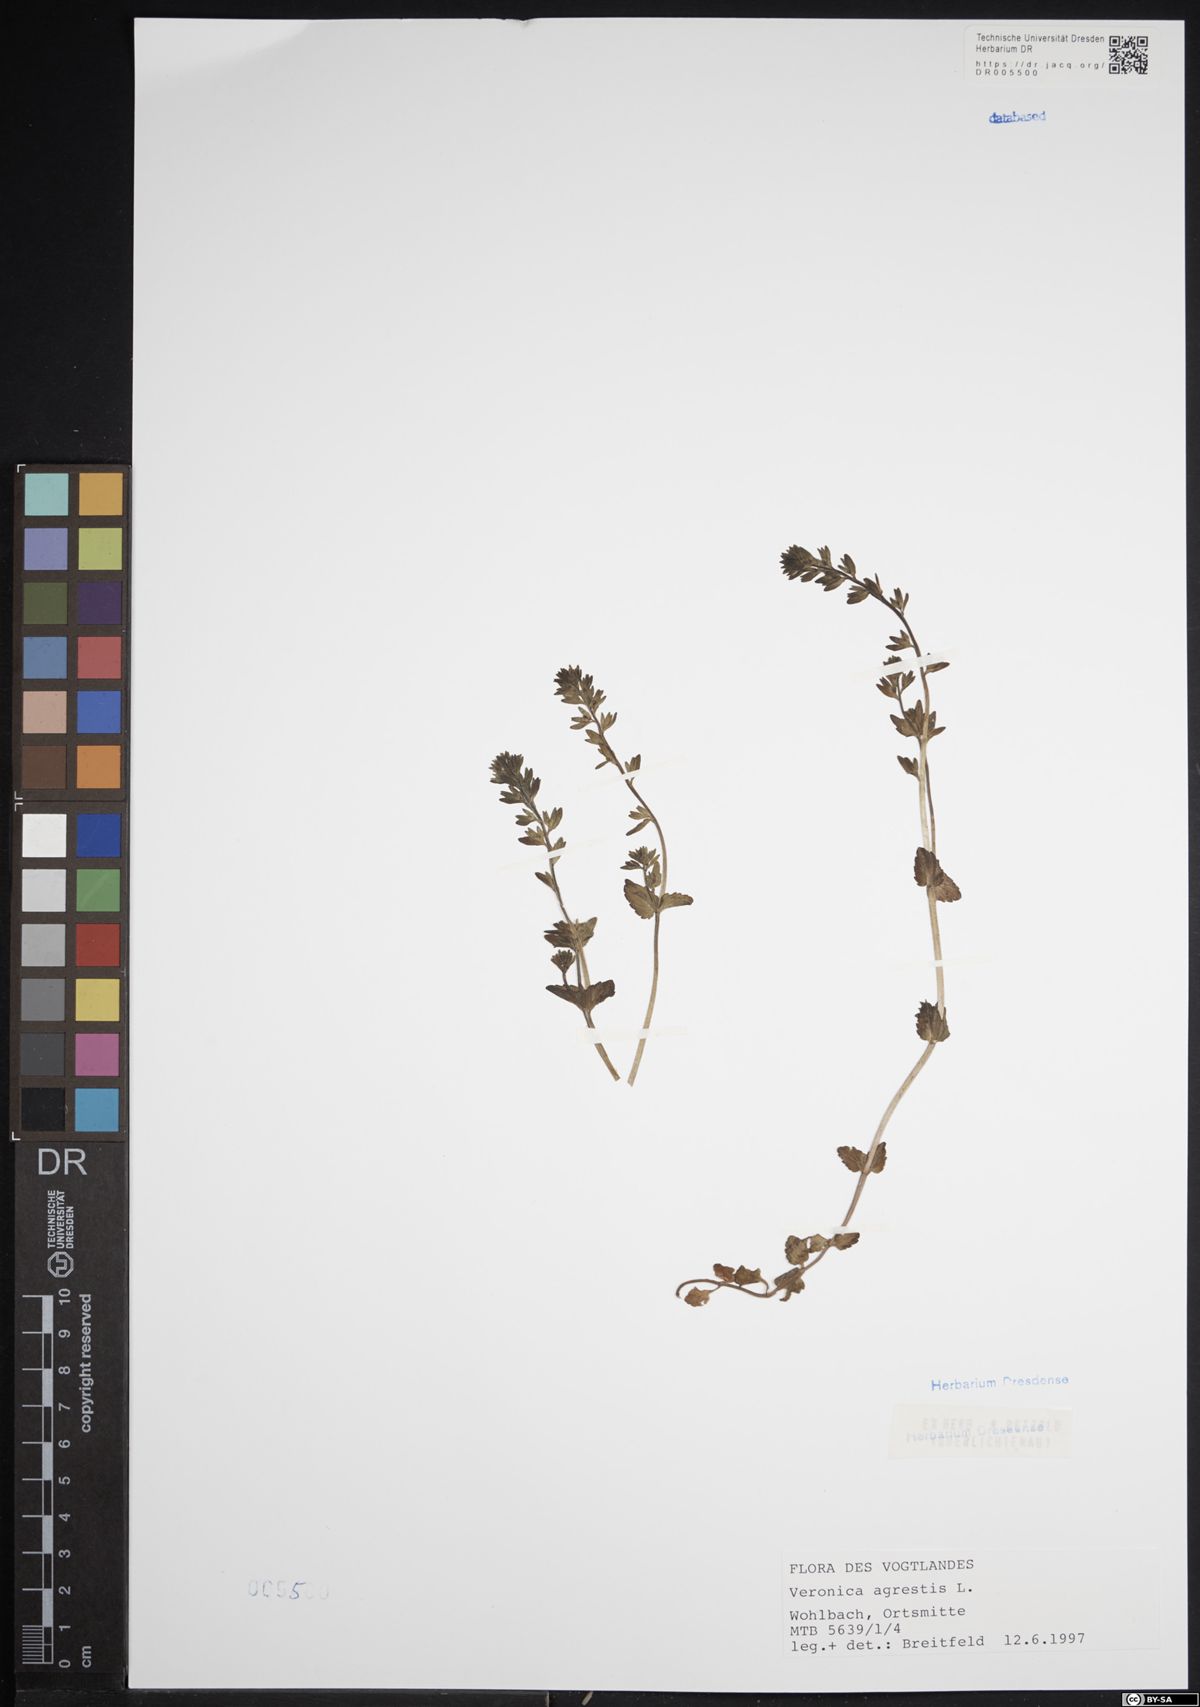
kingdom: Plantae
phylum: Tracheophyta
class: Magnoliopsida
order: Lamiales
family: Plantaginaceae
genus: Veronica
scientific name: Veronica agrestis
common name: Green field-speedwell
